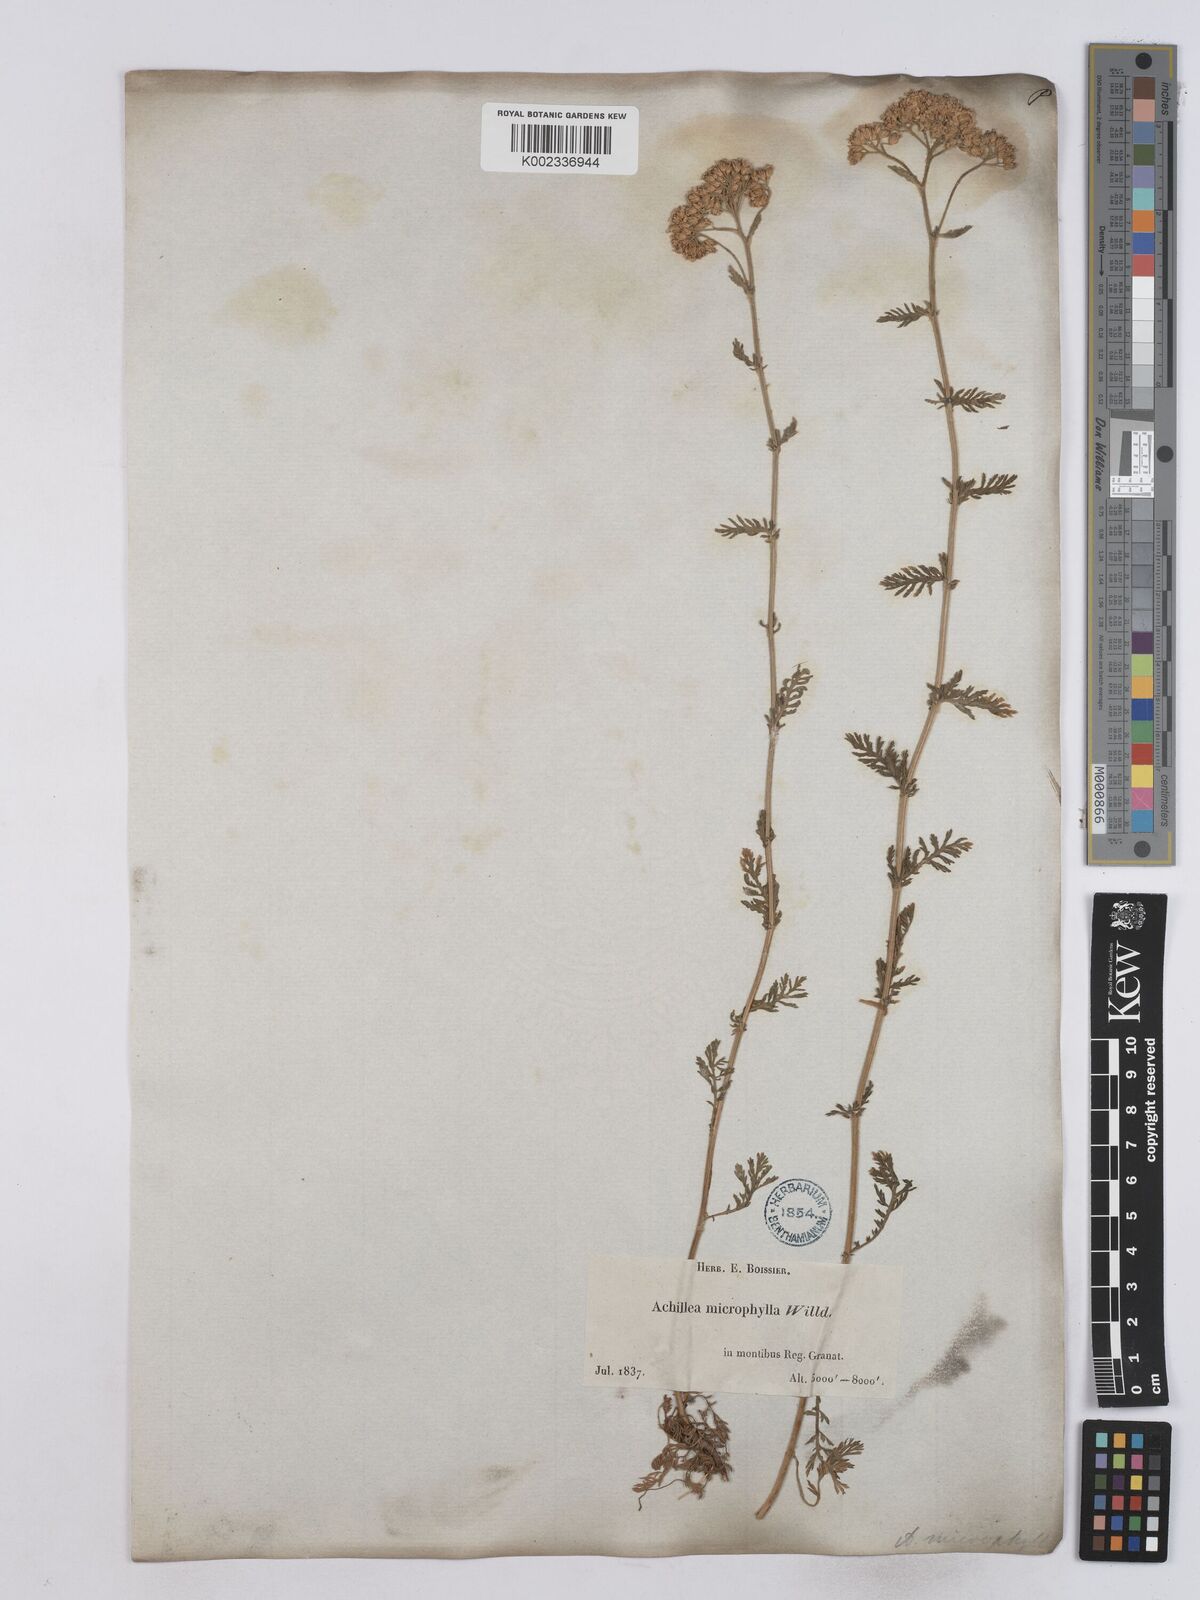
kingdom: Plantae
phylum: Tracheophyta
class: Magnoliopsida
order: Asterales
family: Asteraceae
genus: Achillea
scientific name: Achillea odorata
